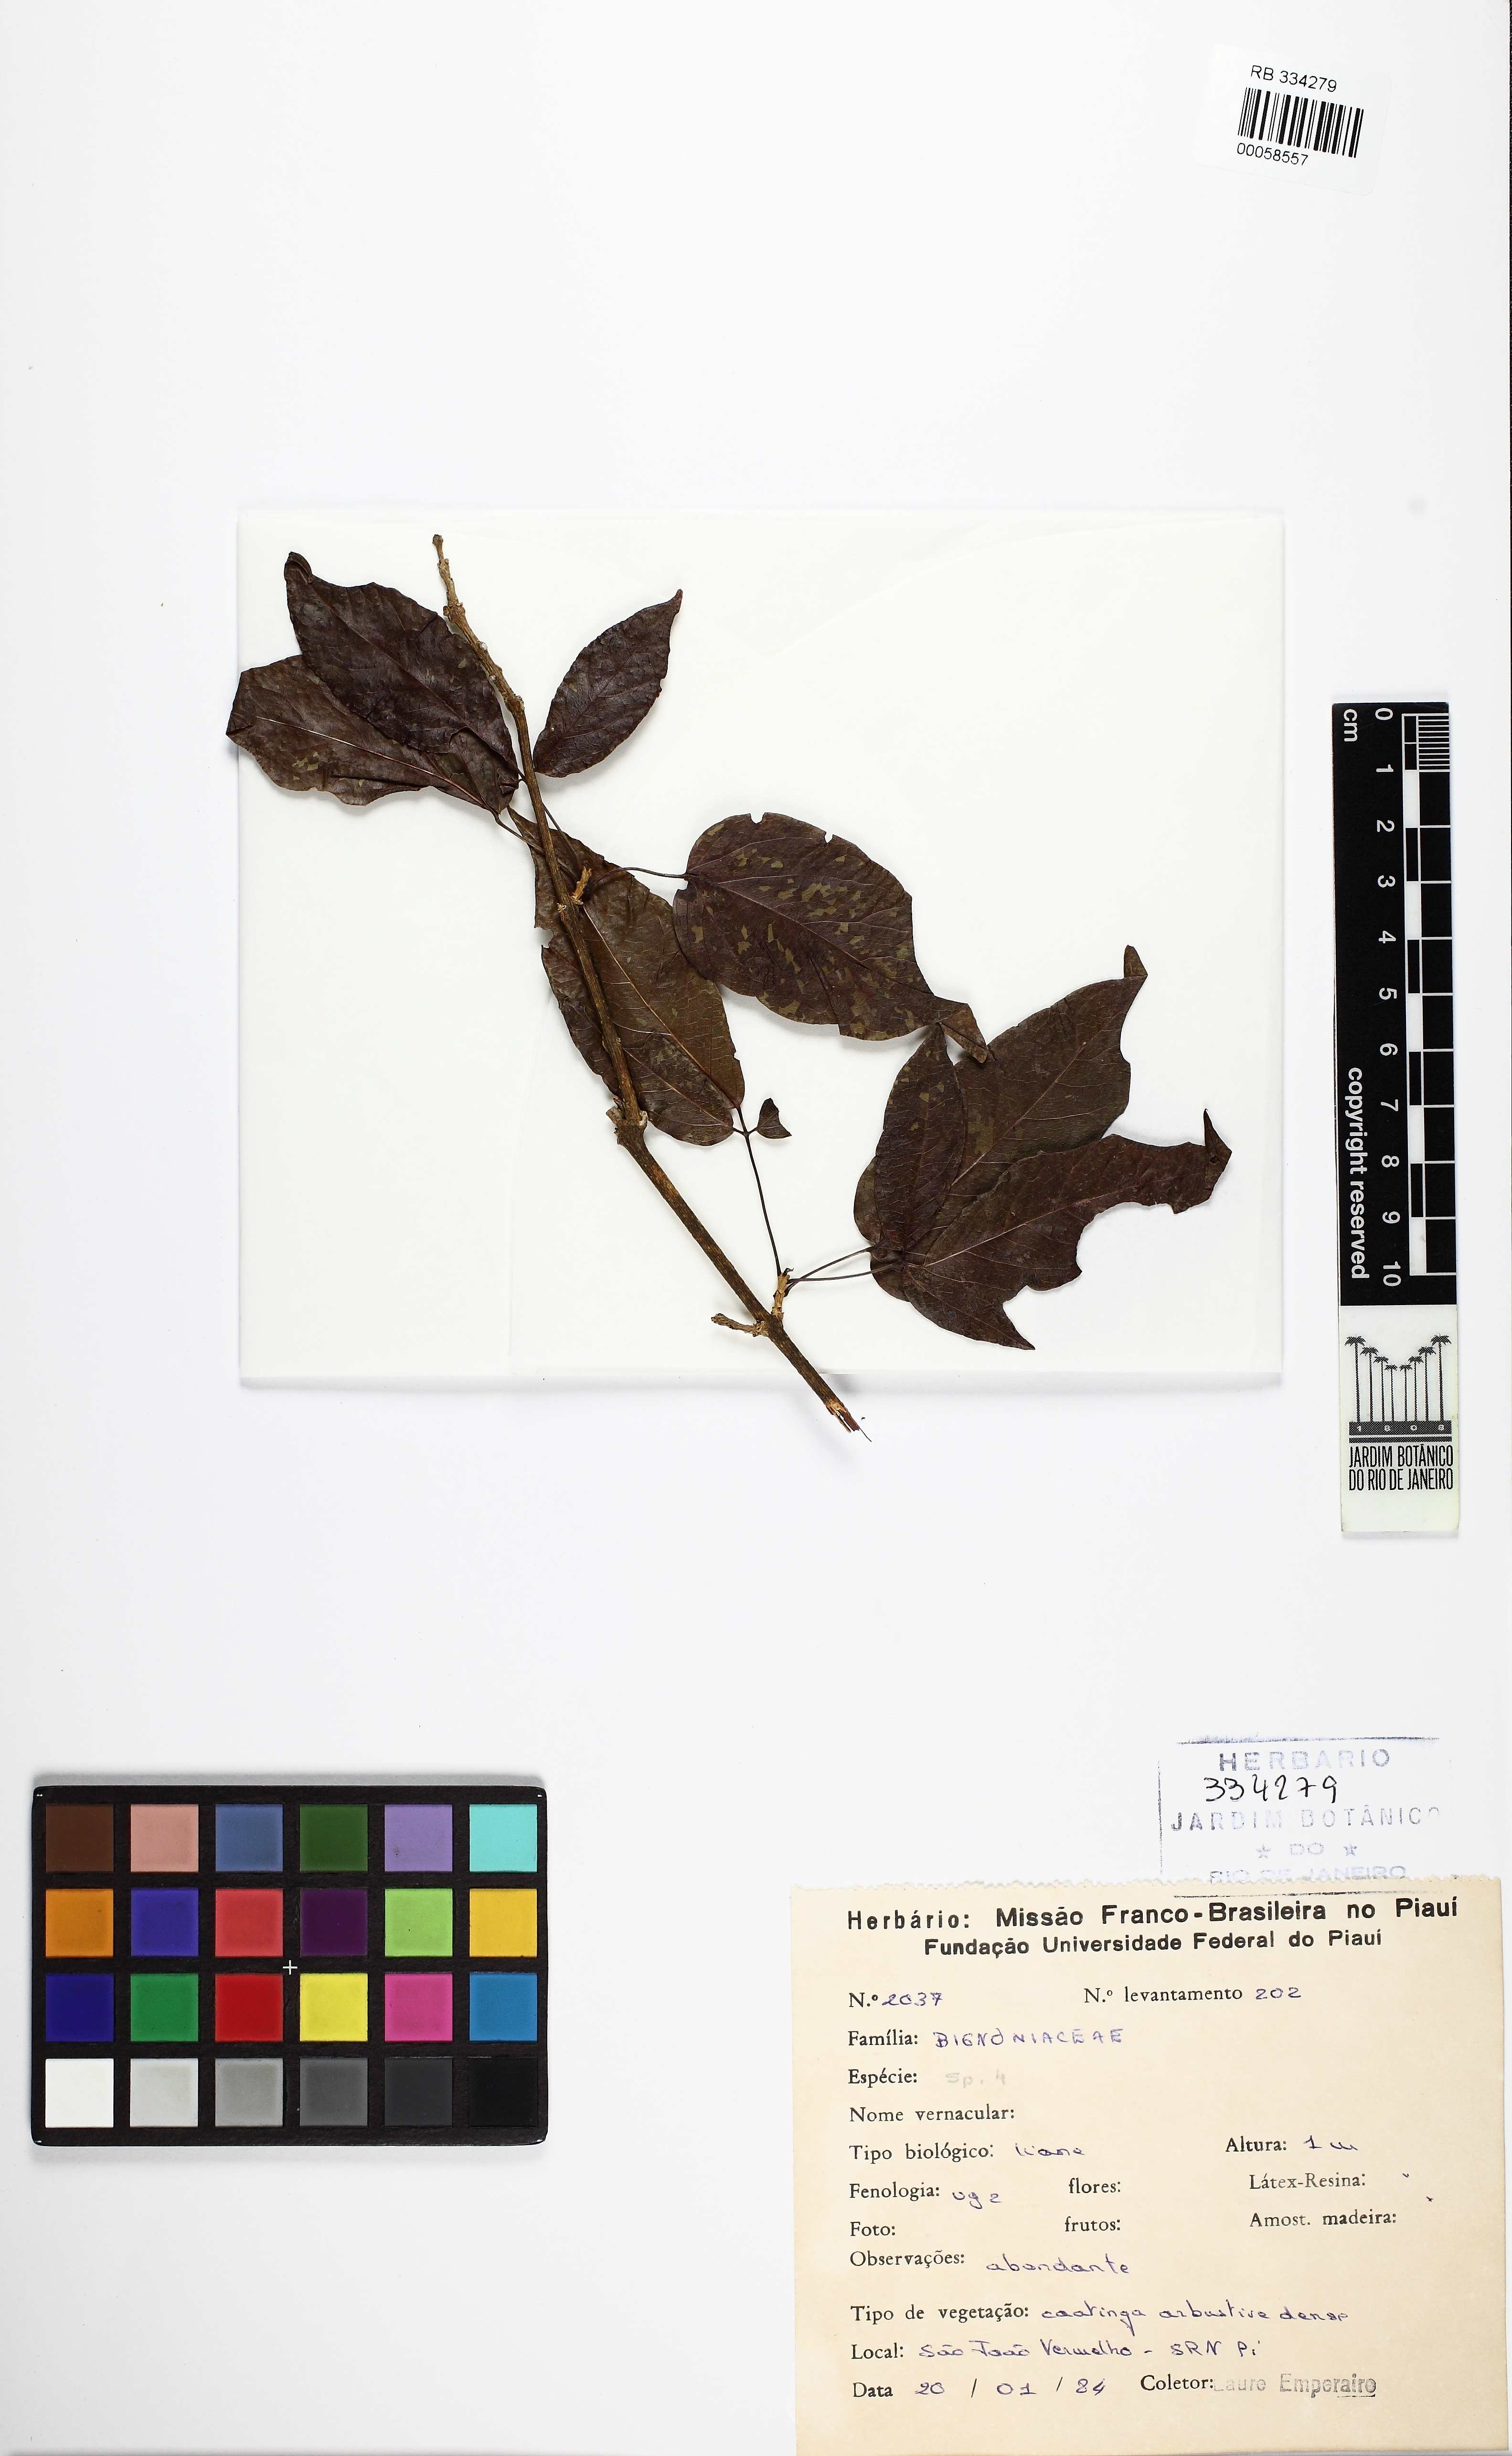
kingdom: Plantae
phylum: Tracheophyta
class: Magnoliopsida
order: Lamiales
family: Bignoniaceae
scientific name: Bignoniaceae
